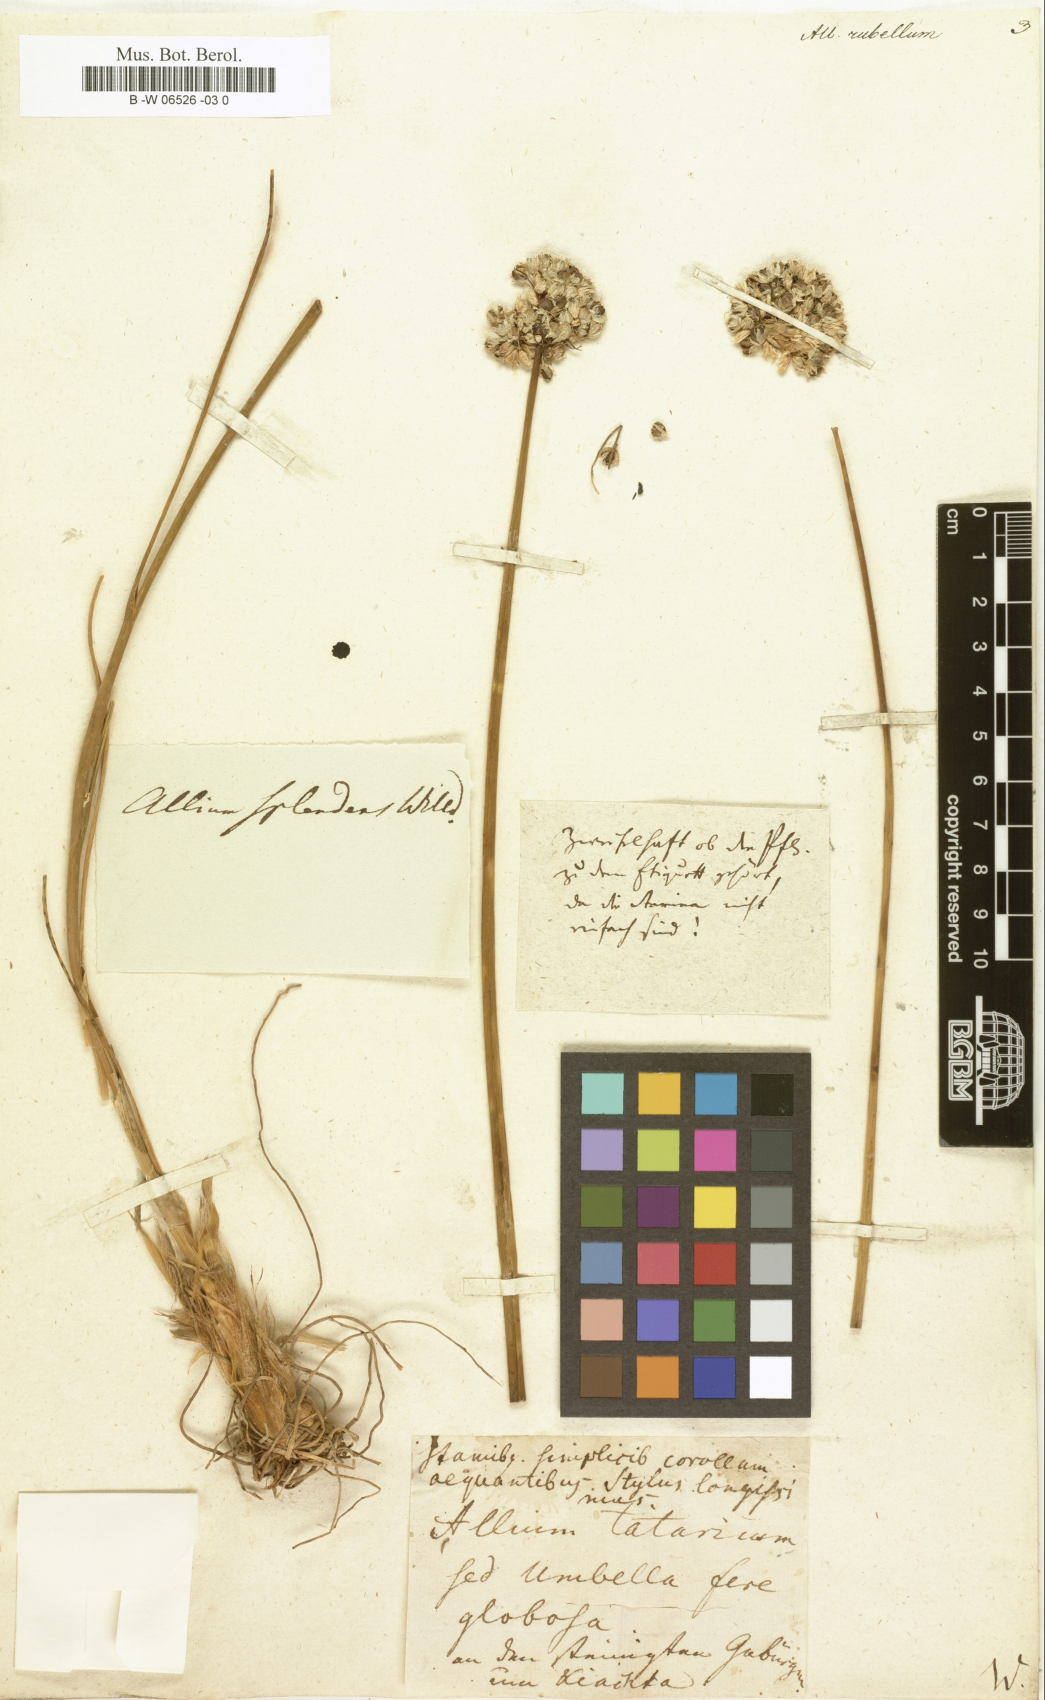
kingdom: Plantae
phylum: Tracheophyta
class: Liliopsida
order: Asparagales
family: Amaryllidaceae
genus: Allium
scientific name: Allium rubellum
